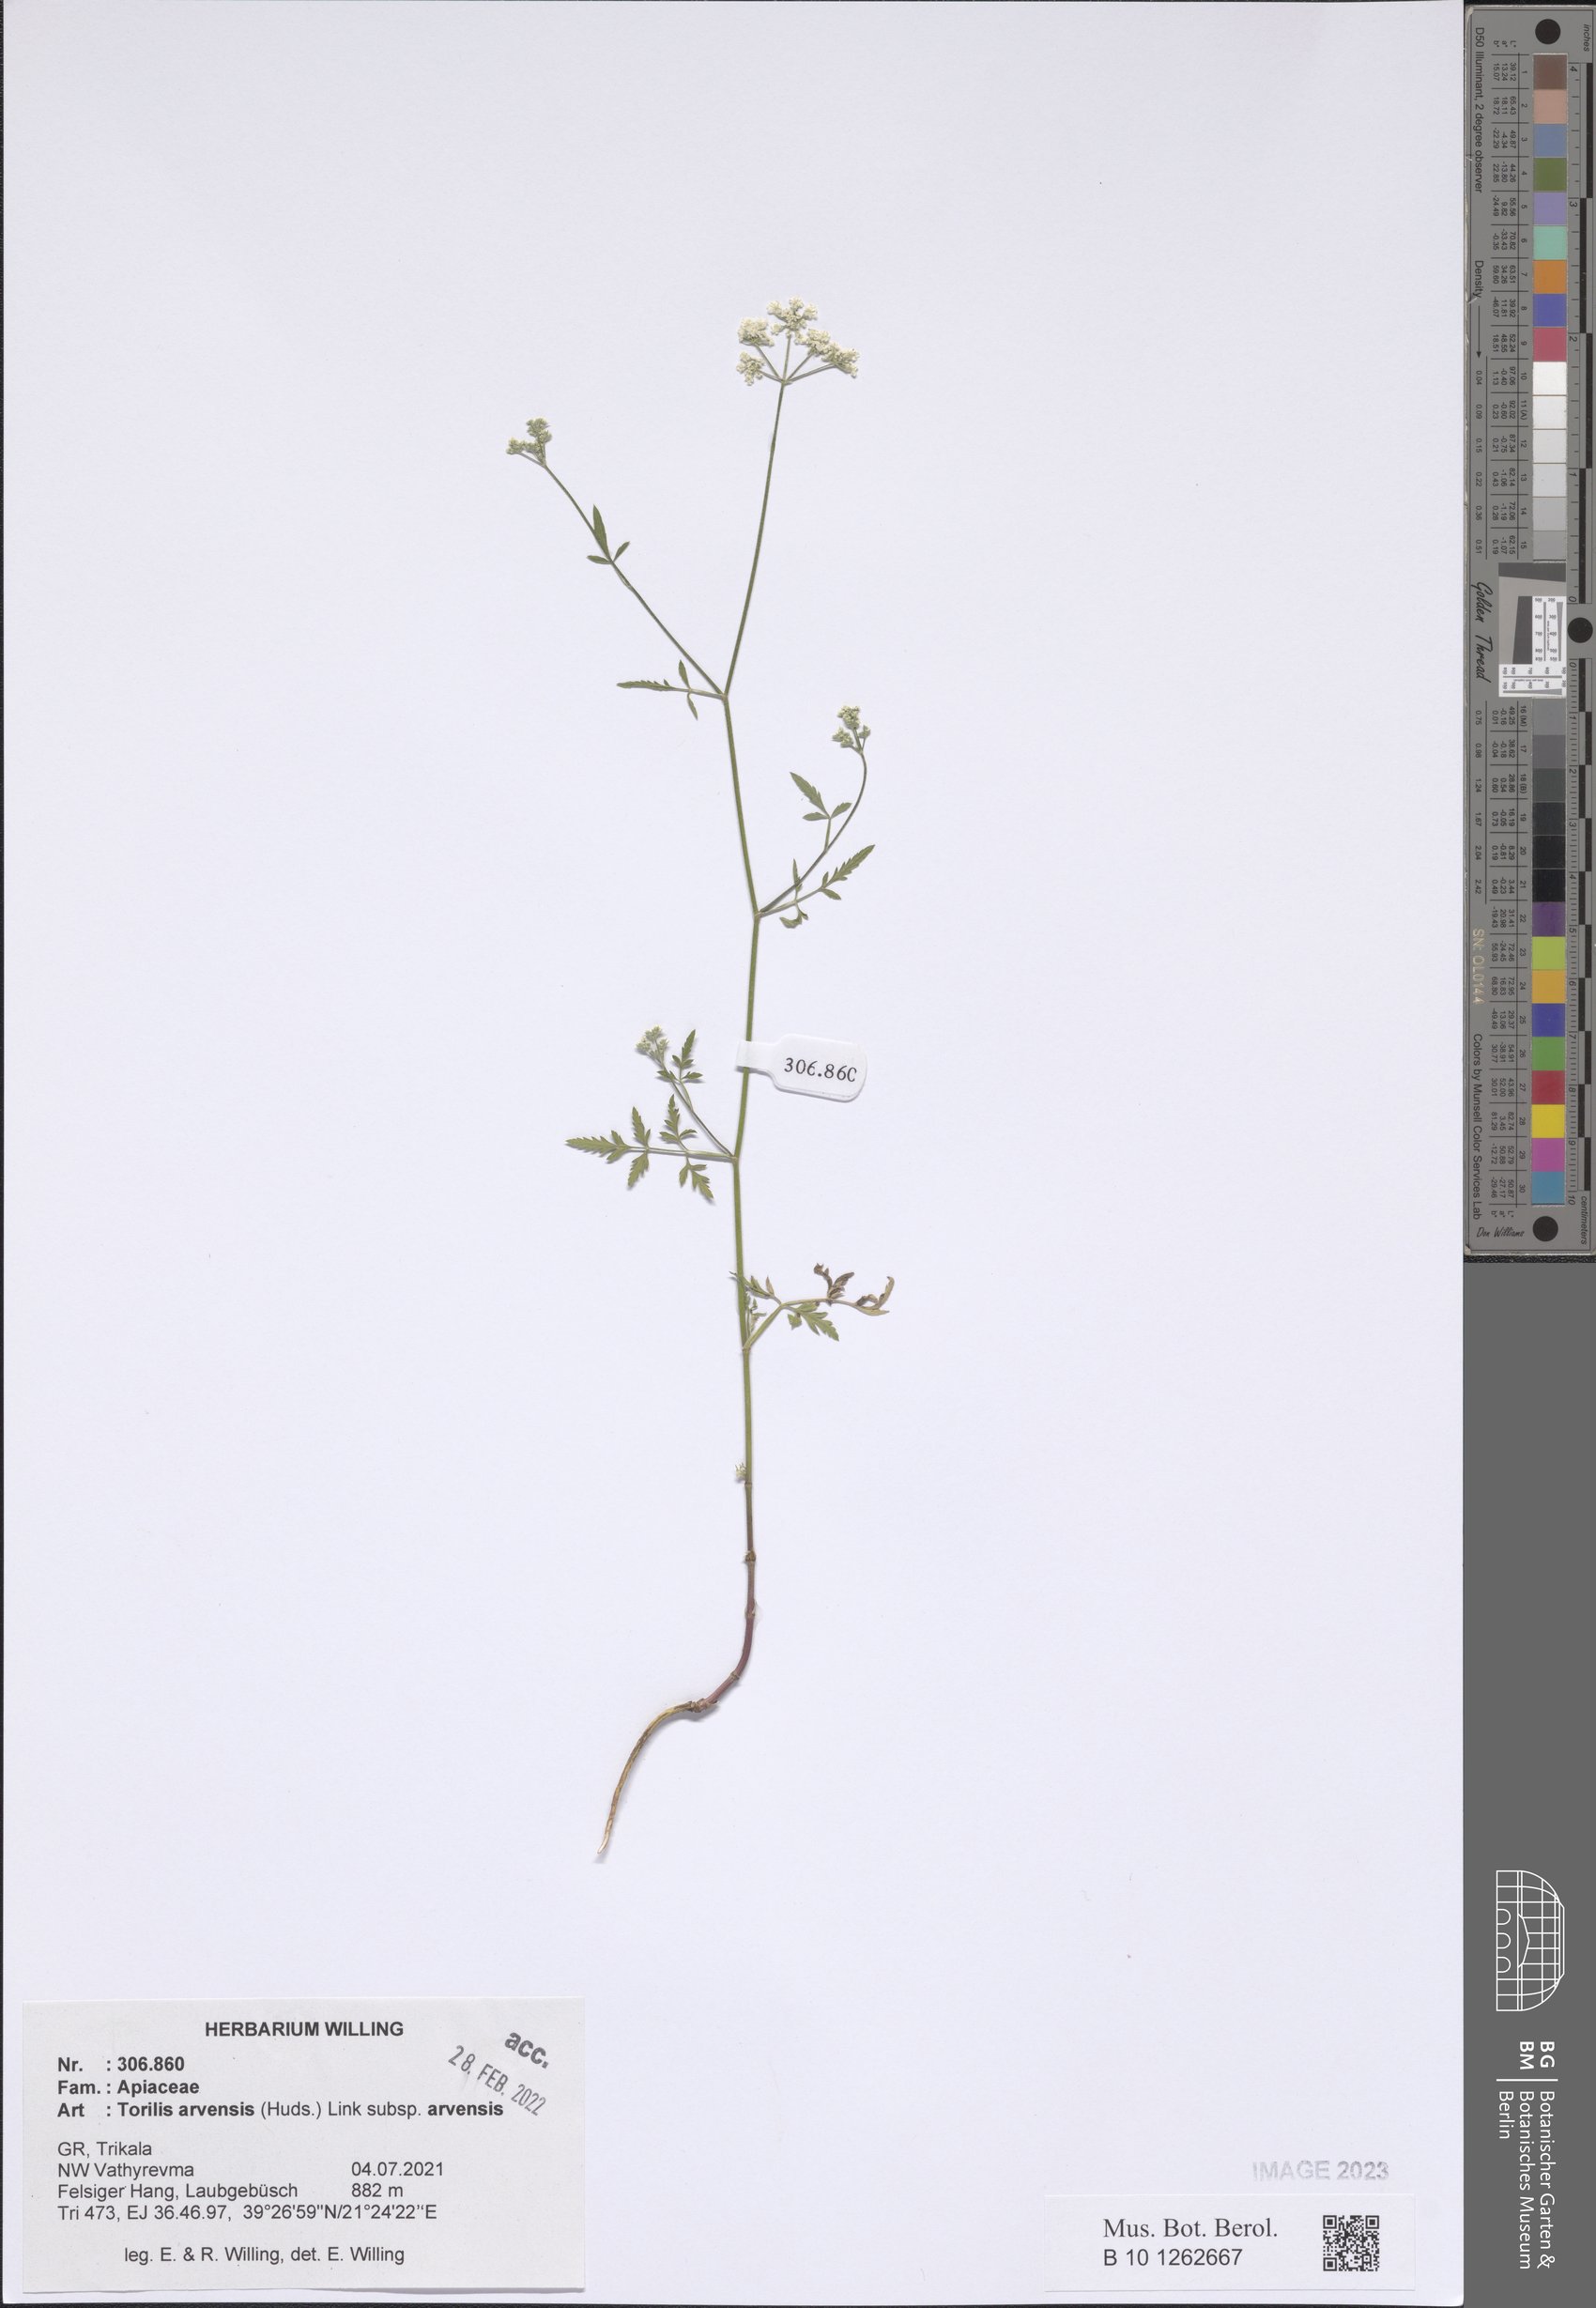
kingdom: Plantae
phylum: Tracheophyta
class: Magnoliopsida
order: Apiales
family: Apiaceae
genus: Torilis
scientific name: Torilis arvensis
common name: Spreading hedge-parsley
